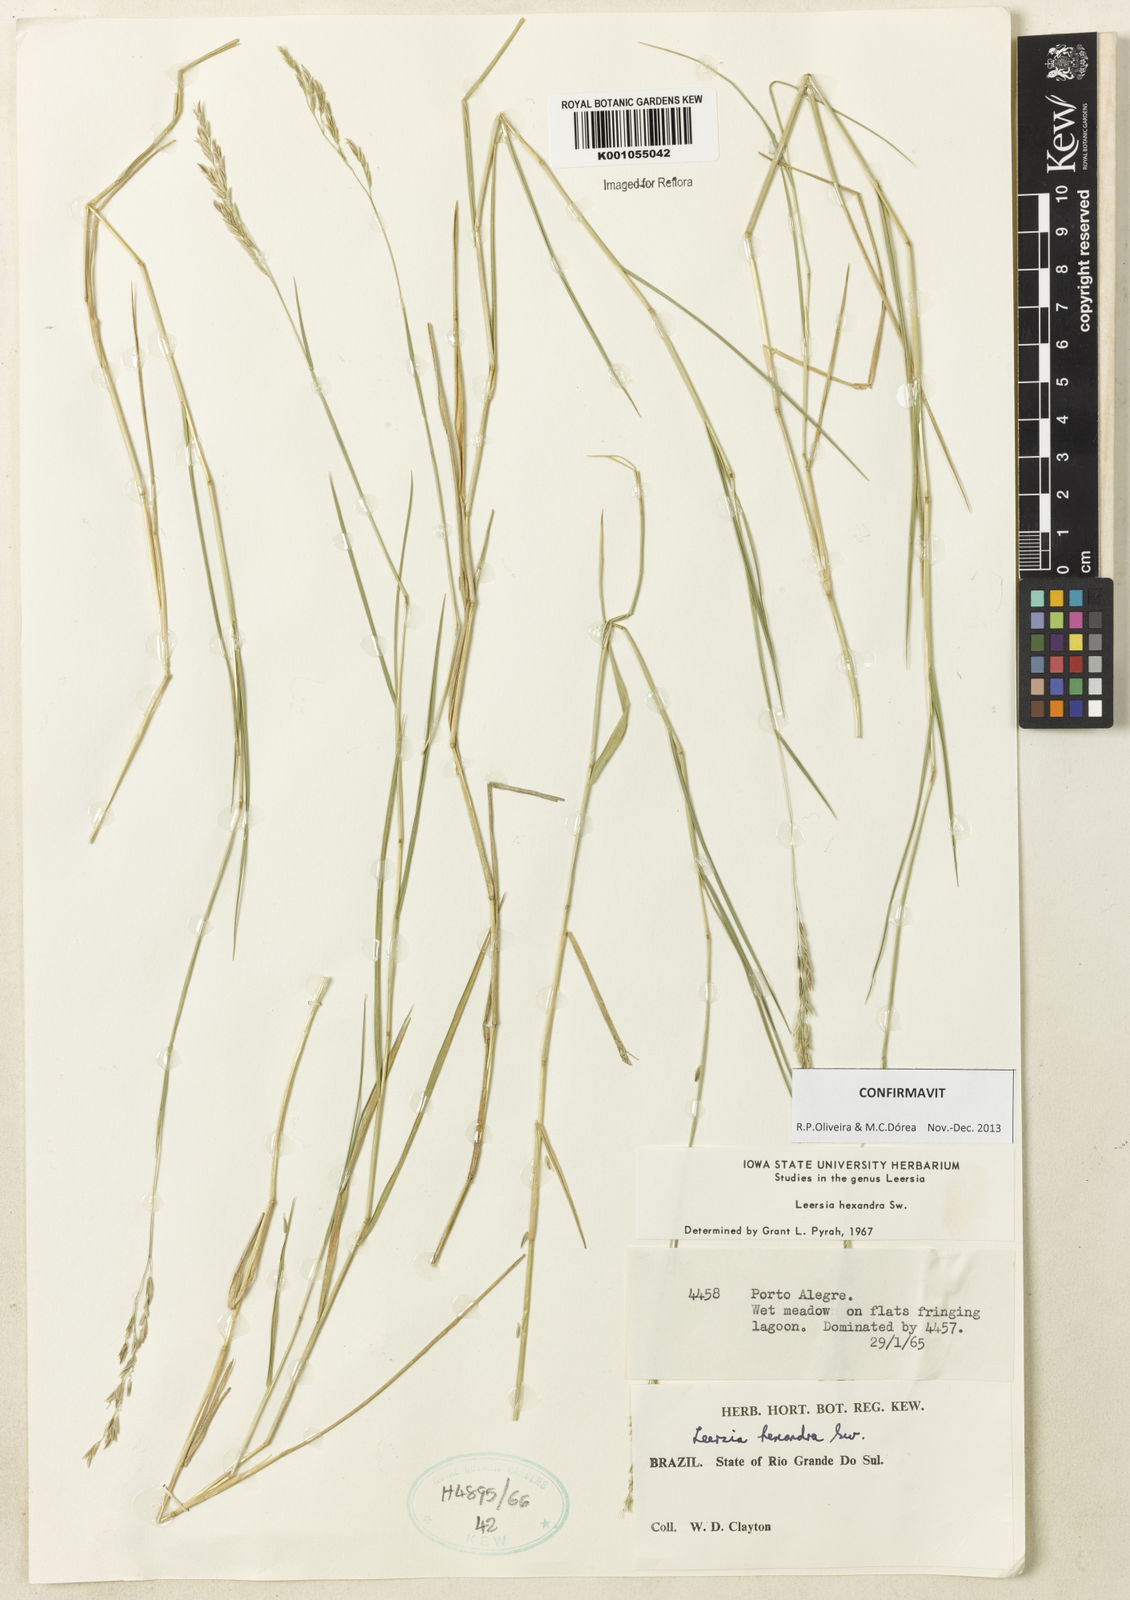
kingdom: Plantae
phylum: Tracheophyta
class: Liliopsida
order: Poales
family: Poaceae
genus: Leersia
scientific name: Leersia hexandra
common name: Southern cut grass
